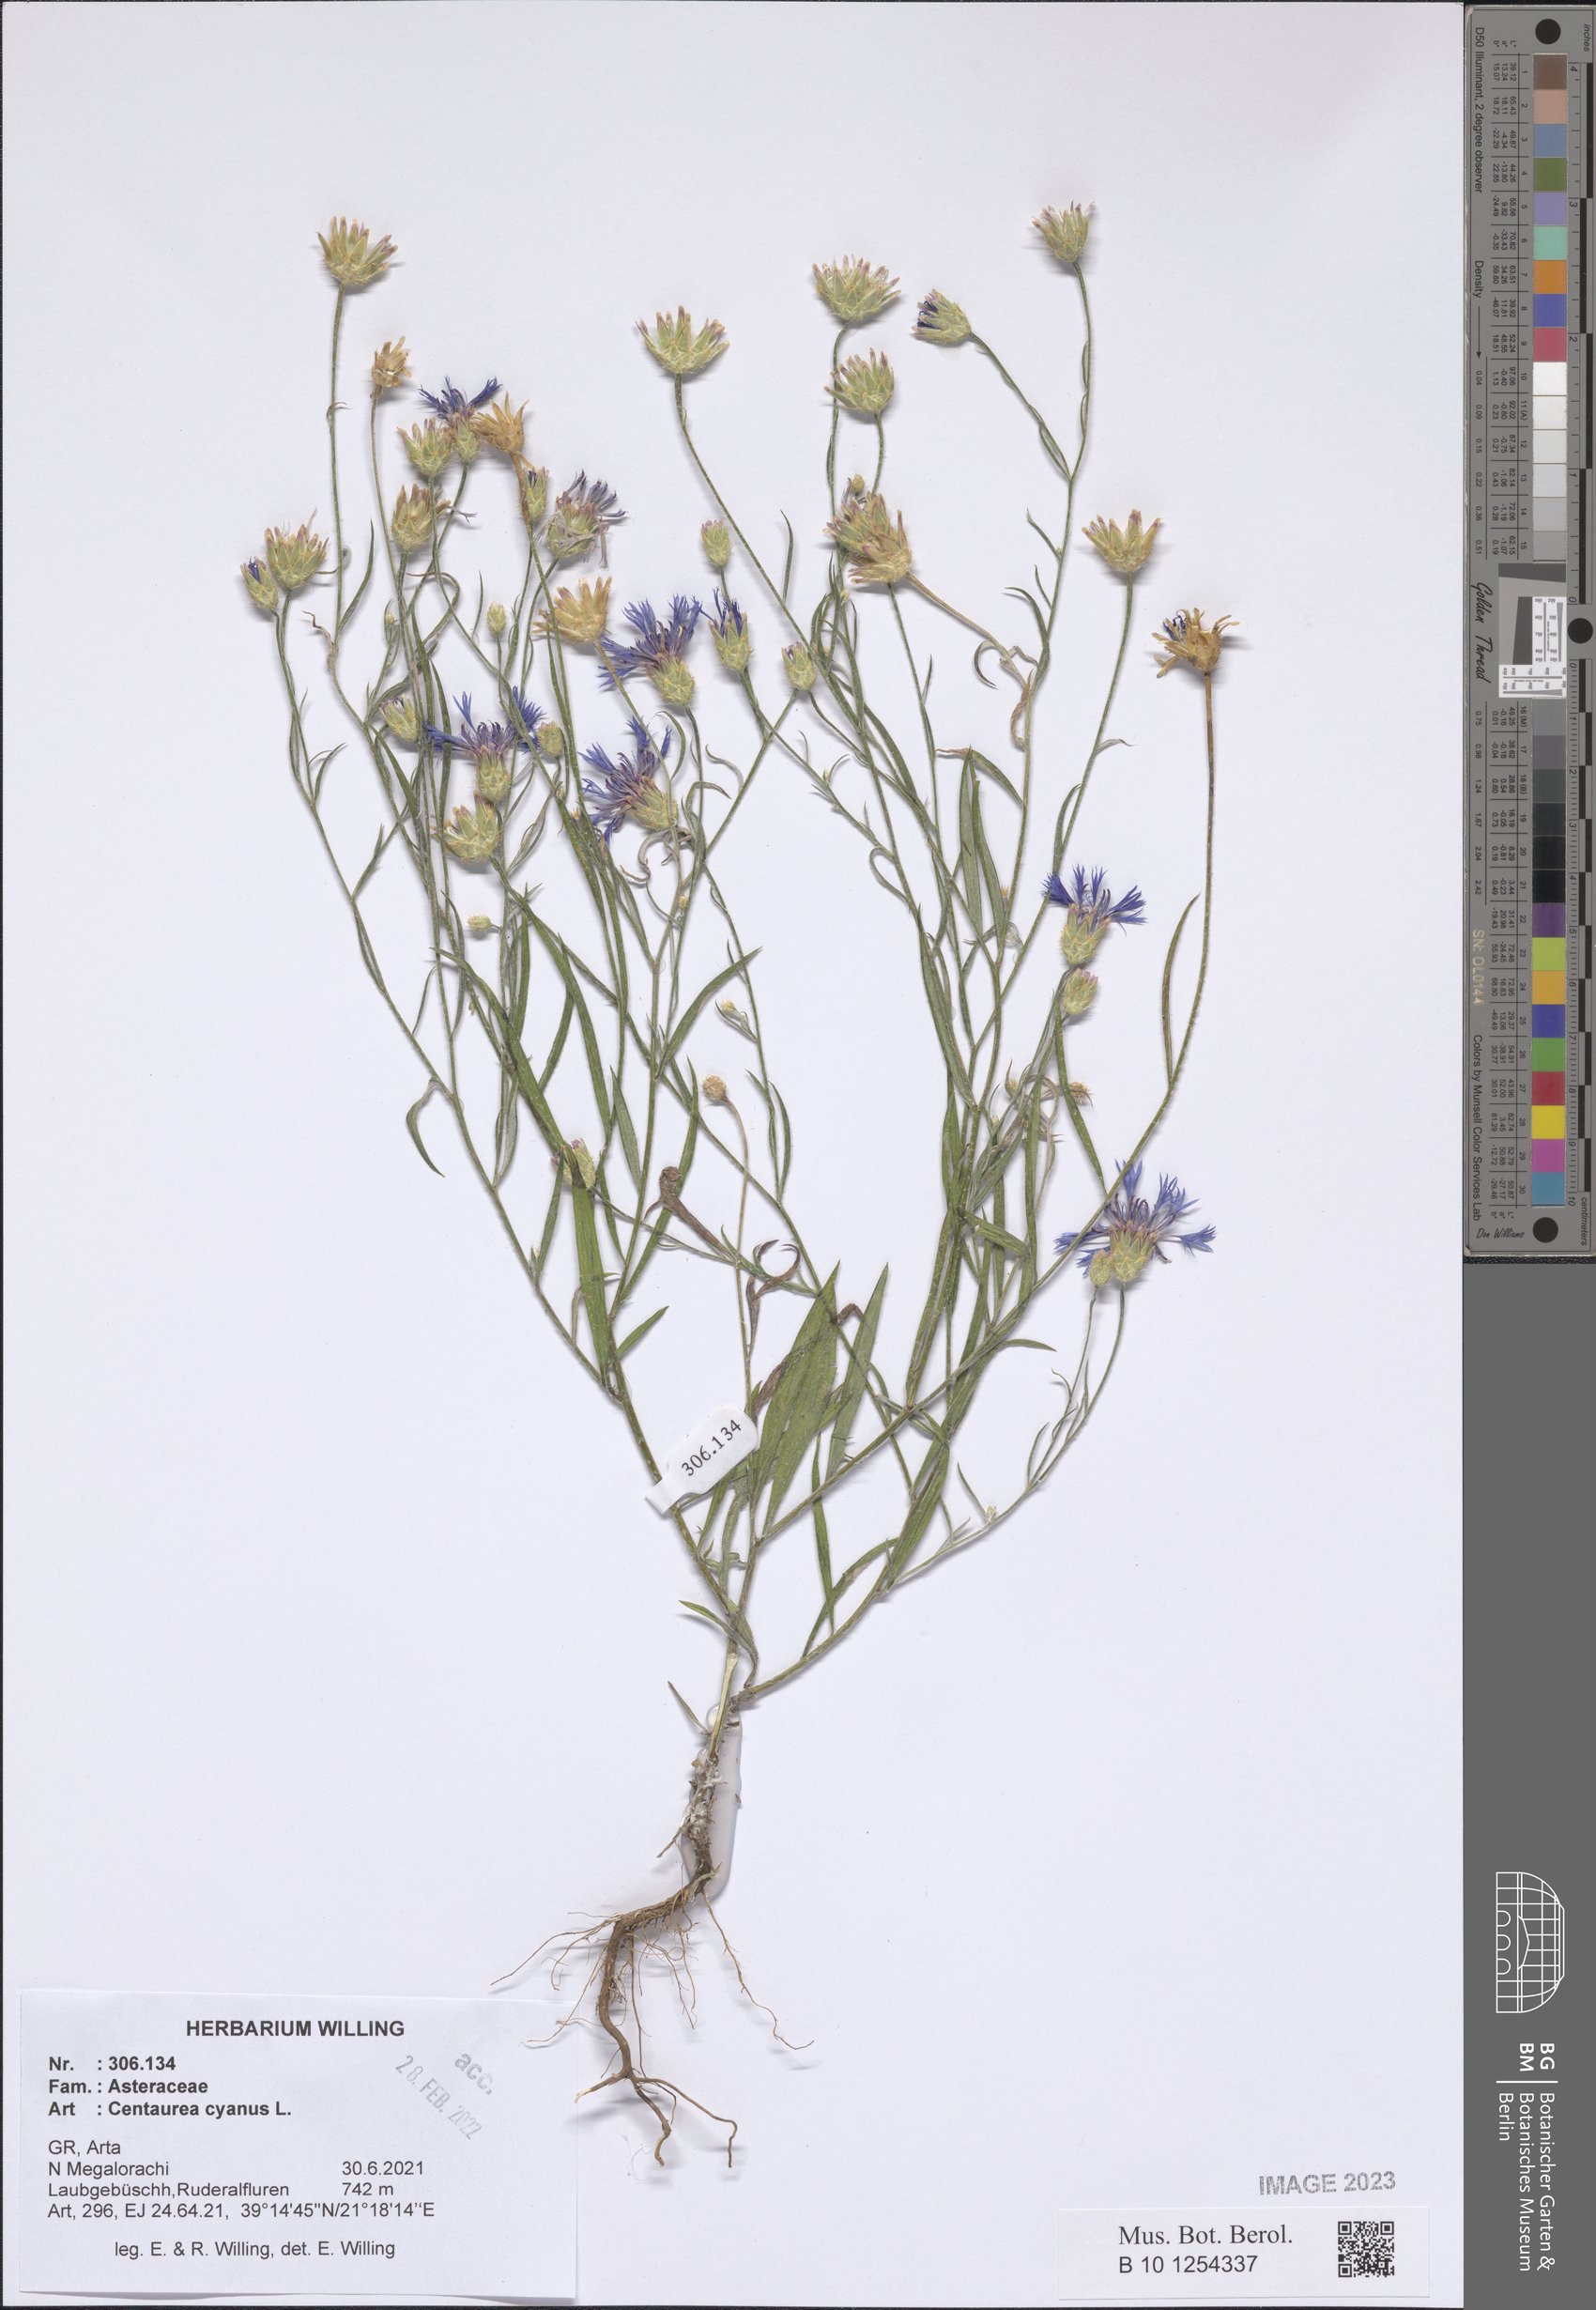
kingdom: Plantae
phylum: Tracheophyta
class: Magnoliopsida
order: Asterales
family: Asteraceae
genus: Centaurea
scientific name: Centaurea cyanus
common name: Cornflower
